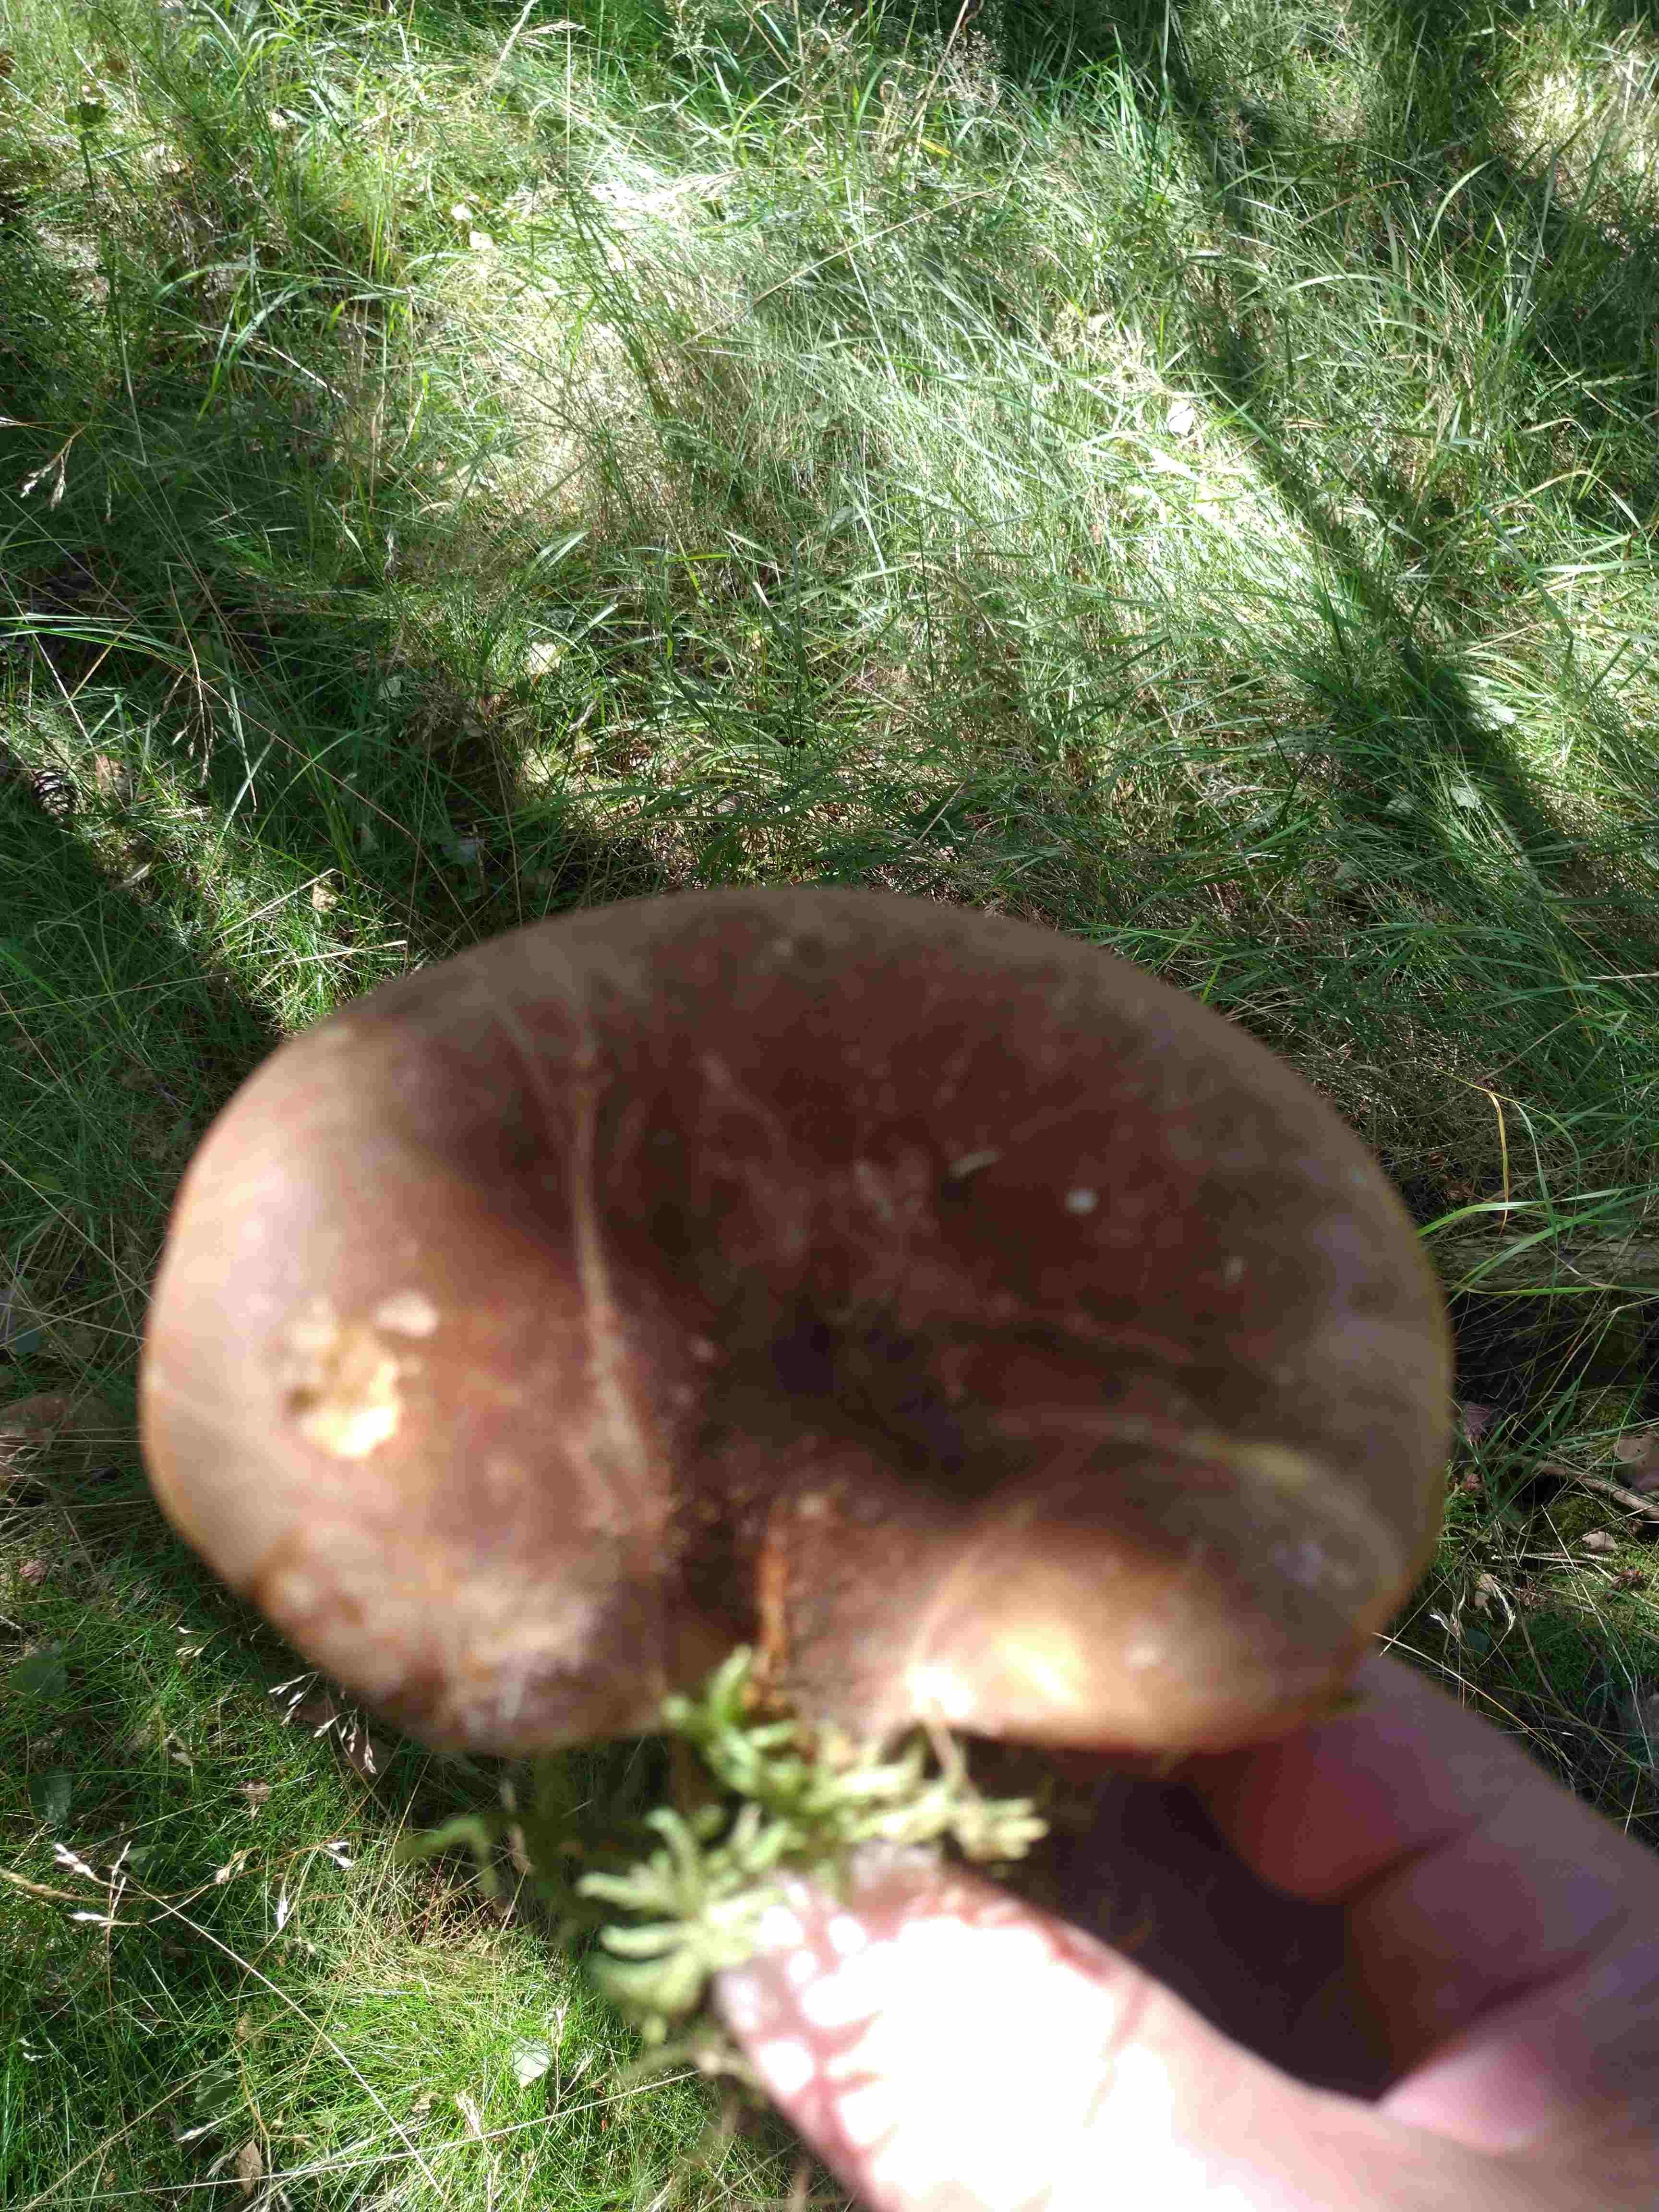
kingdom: Fungi
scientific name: Fungi
